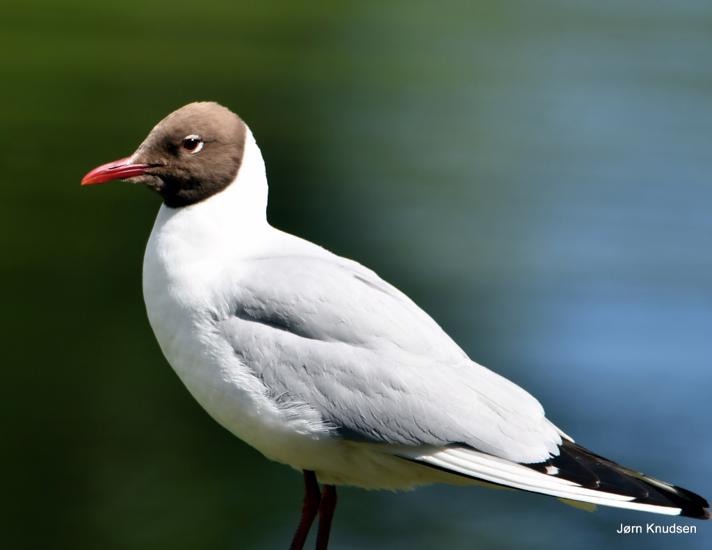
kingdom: Animalia
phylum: Chordata
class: Aves
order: Charadriiformes
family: Laridae
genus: Chroicocephalus
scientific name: Chroicocephalus ridibundus
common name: Hættemåge
